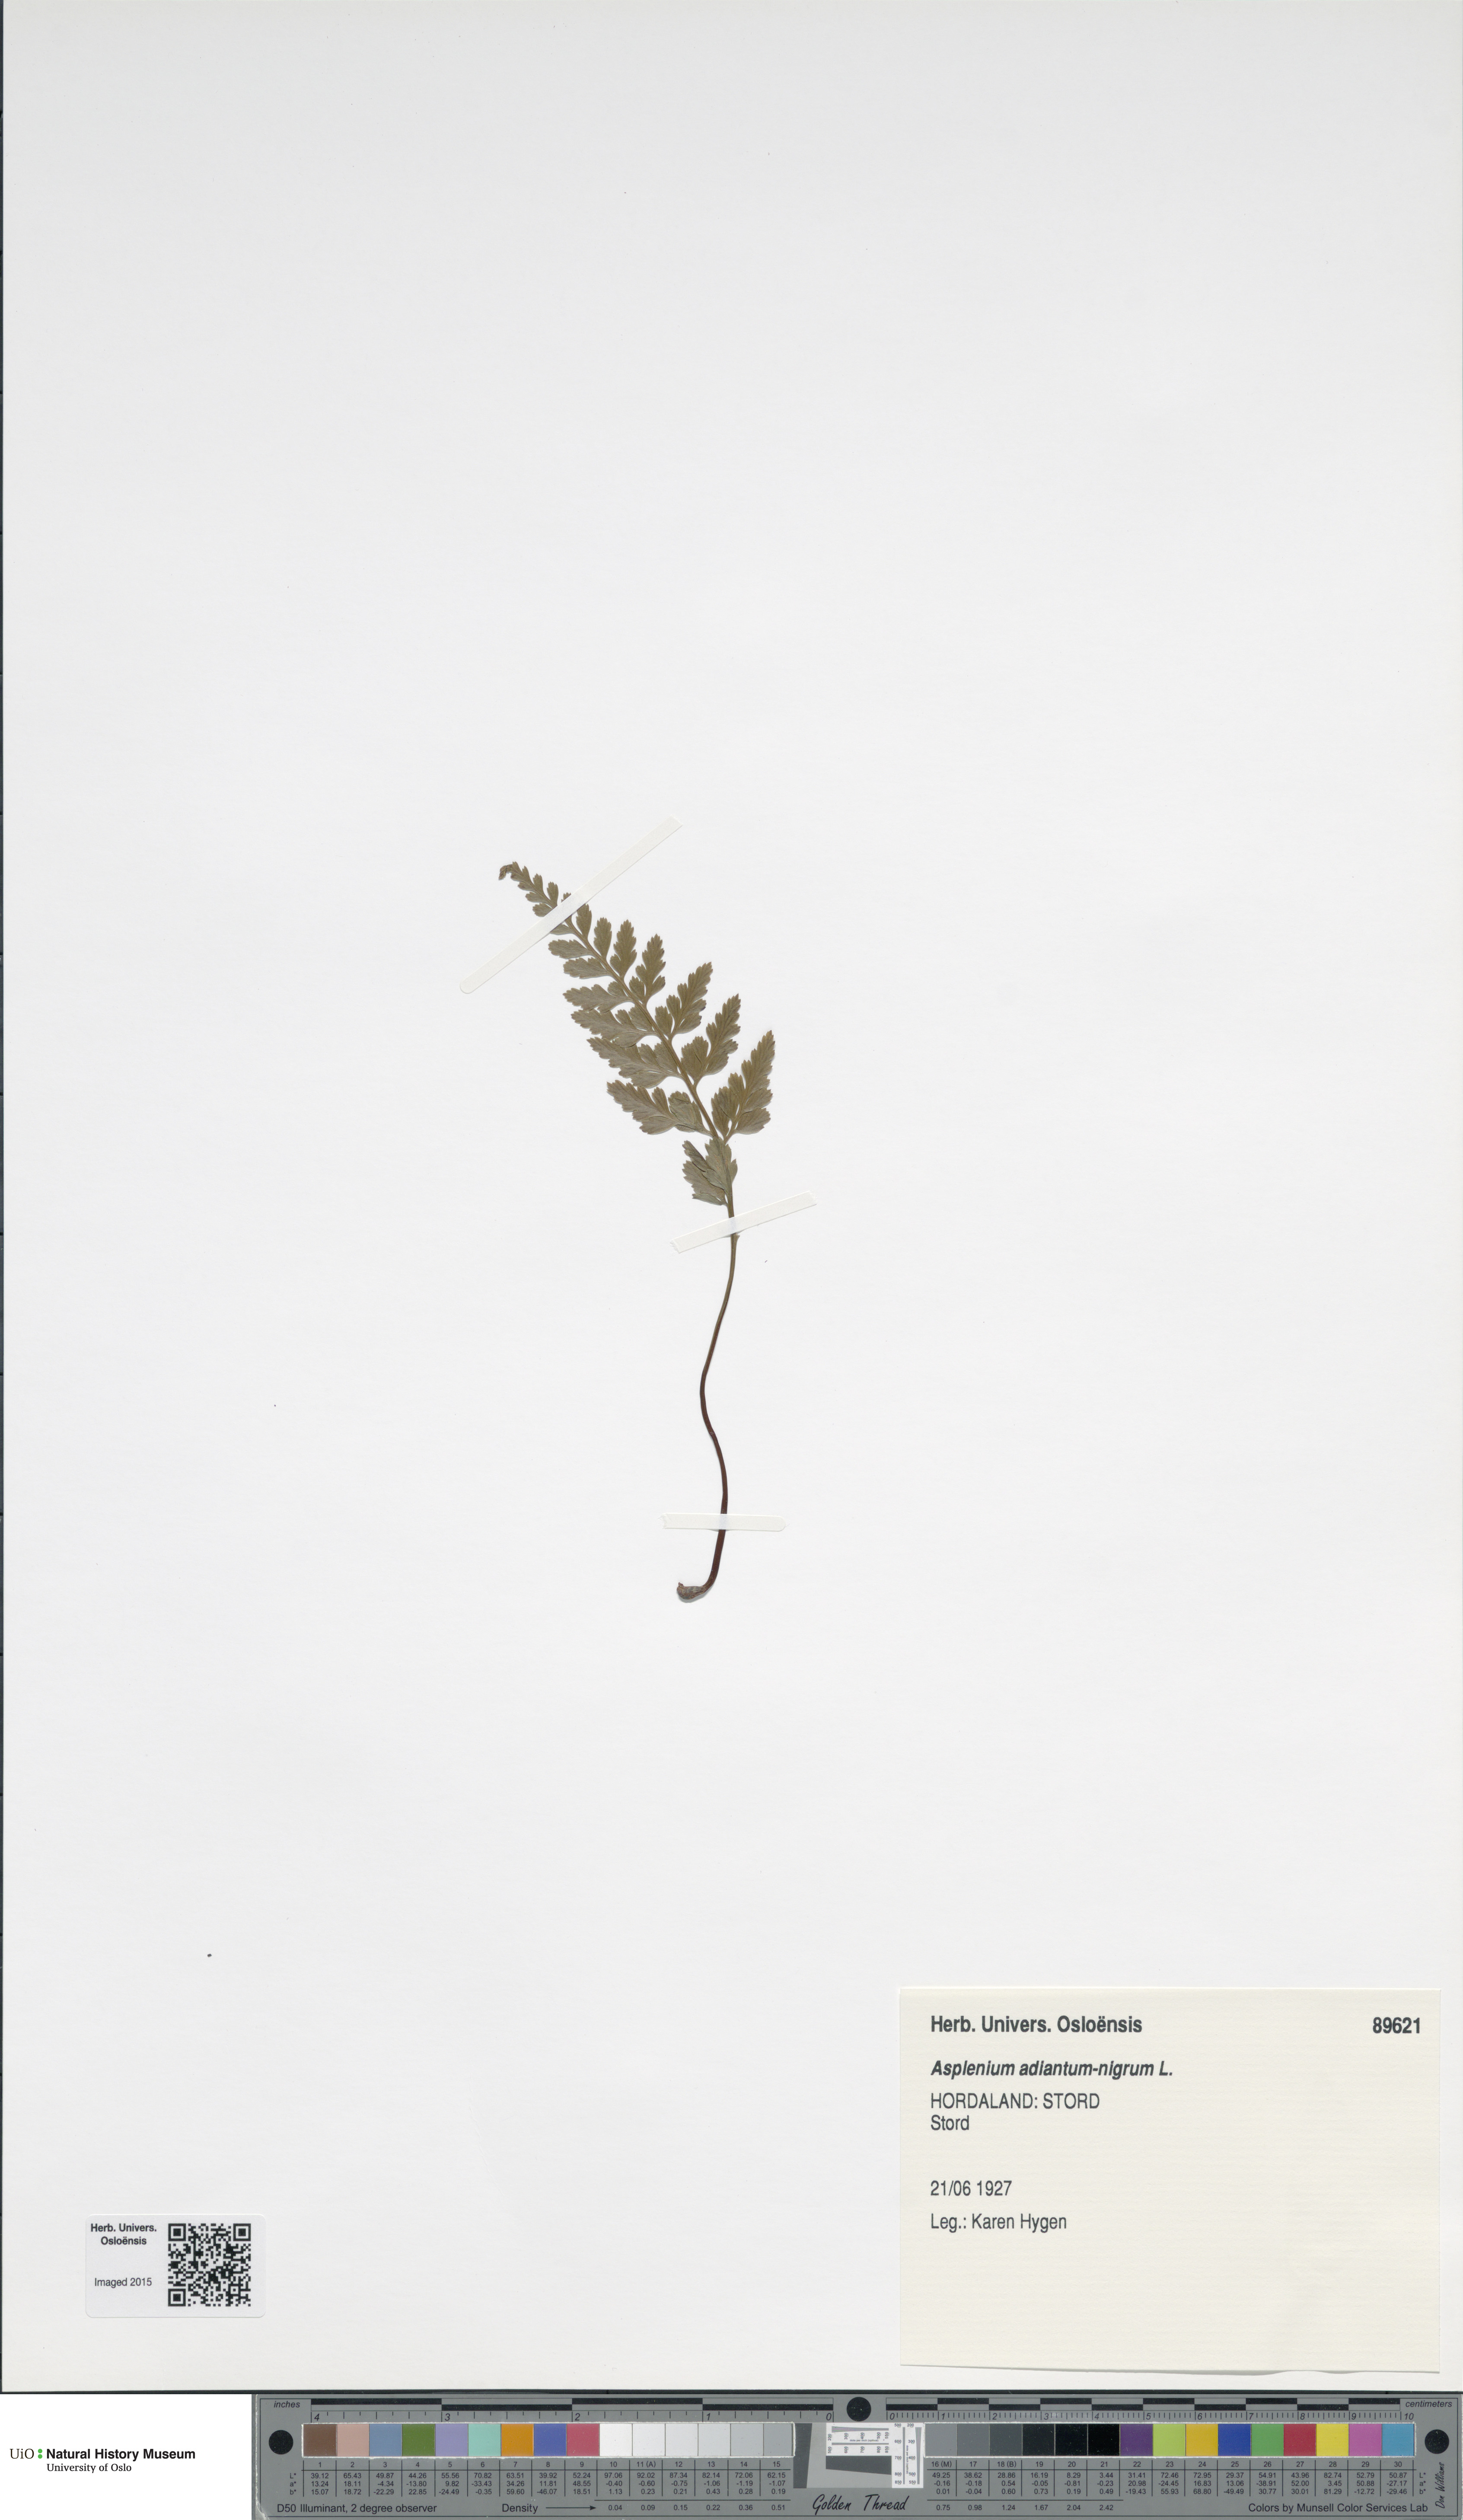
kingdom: Plantae
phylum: Tracheophyta
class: Polypodiopsida
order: Polypodiales
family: Aspleniaceae
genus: Asplenium
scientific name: Asplenium adiantum-nigrum
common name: Black spleenwort
